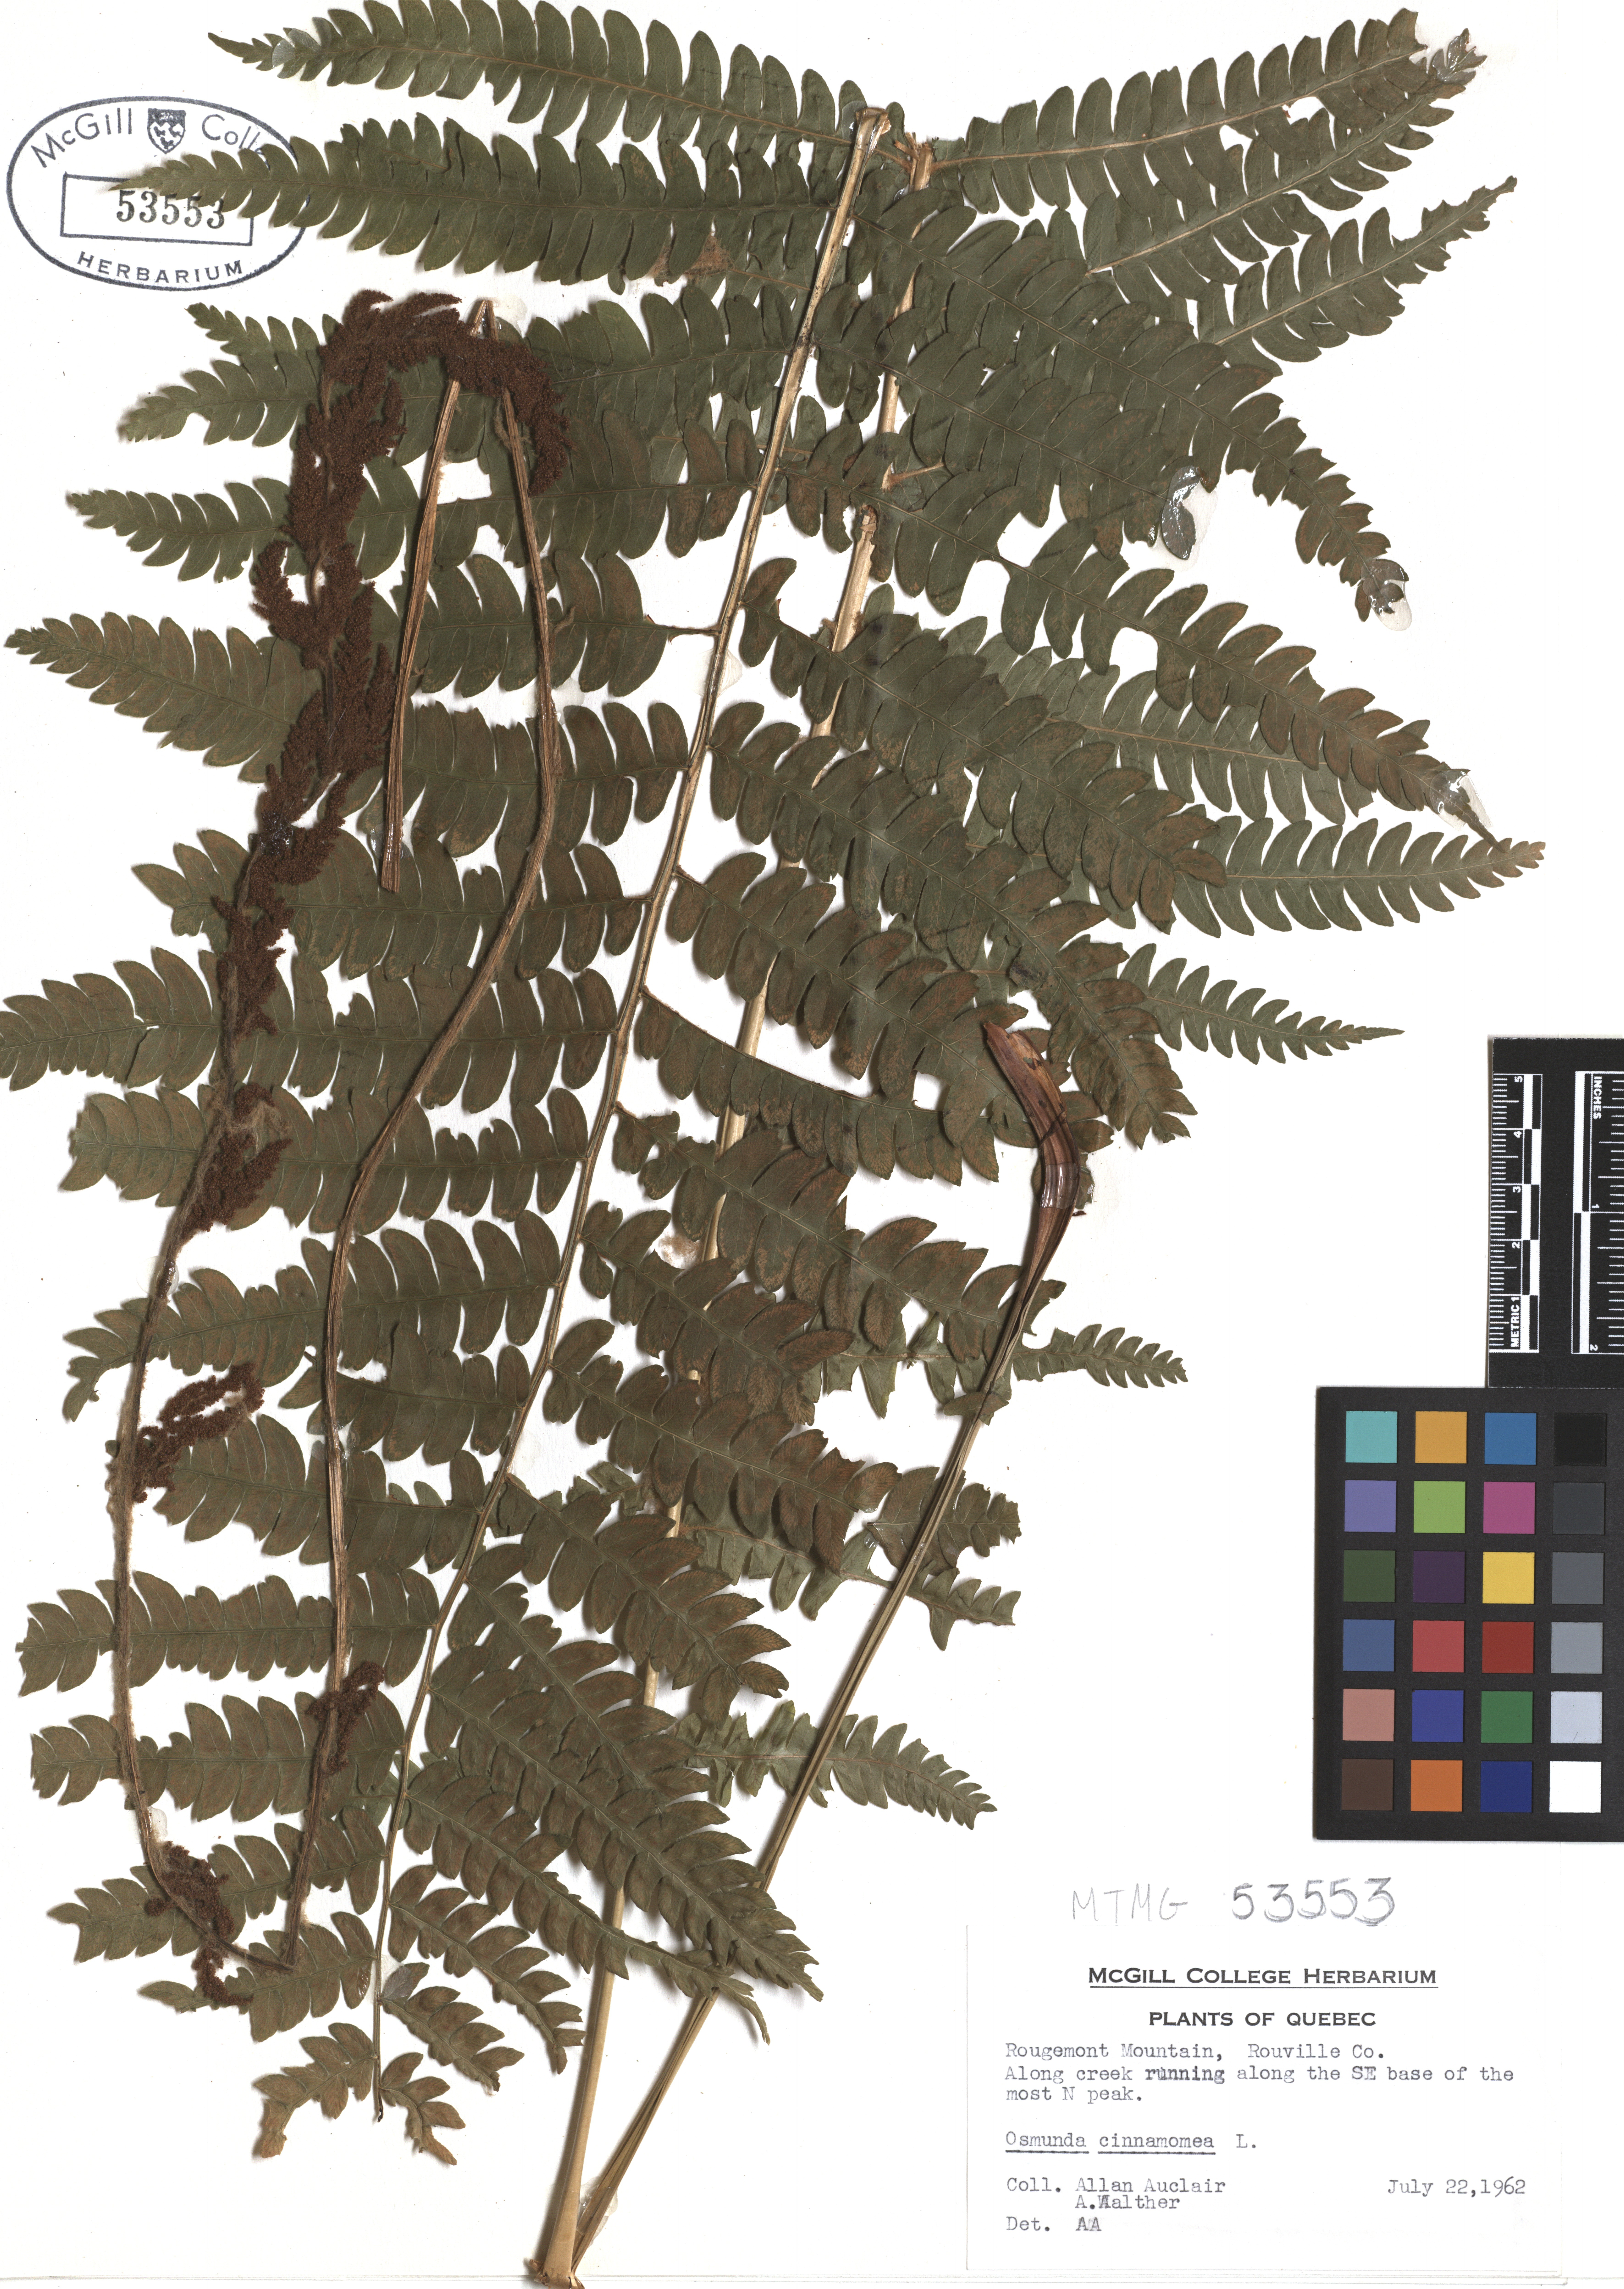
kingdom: Plantae
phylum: Tracheophyta
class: Polypodiopsida
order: Osmundales
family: Osmundaceae
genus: Osmundastrum
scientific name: Osmundastrum cinnamomeum
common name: Cinnamon fern
